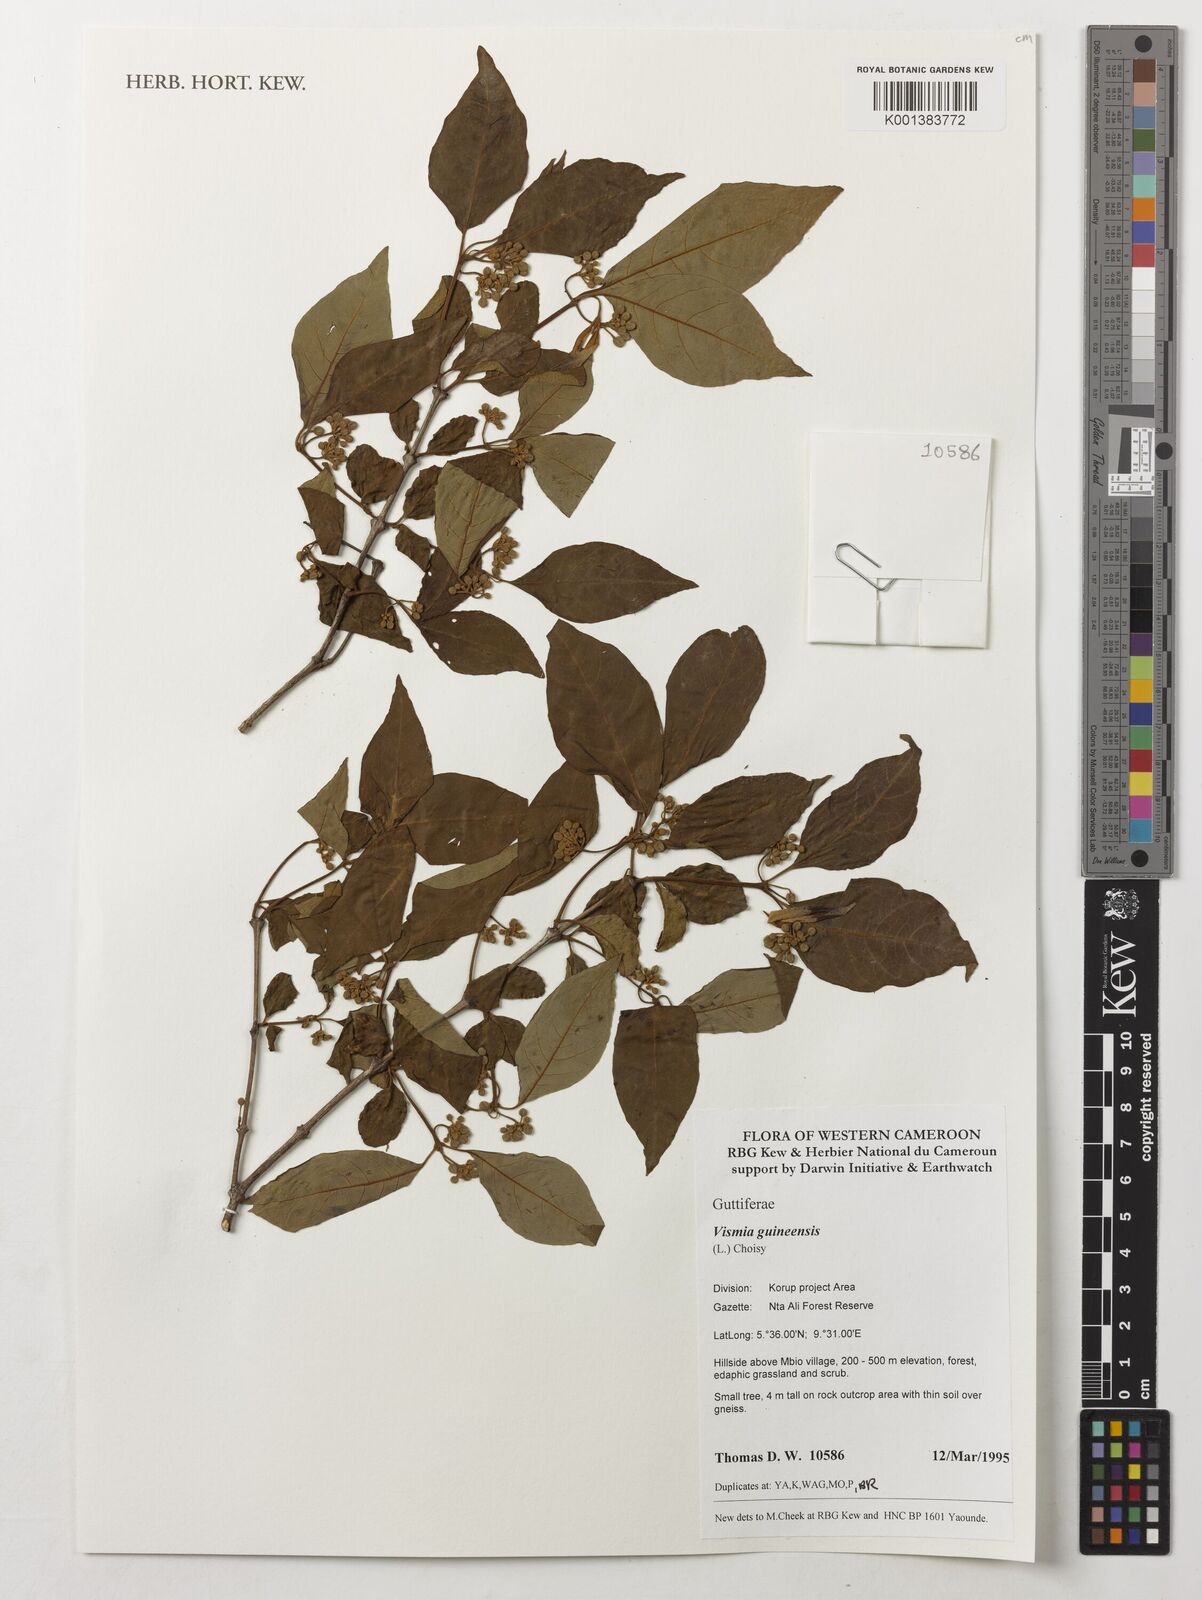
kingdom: Plantae
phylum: Tracheophyta
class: Magnoliopsida
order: Malpighiales
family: Hypericaceae
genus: Psorospermum
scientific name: Psorospermum guineense
